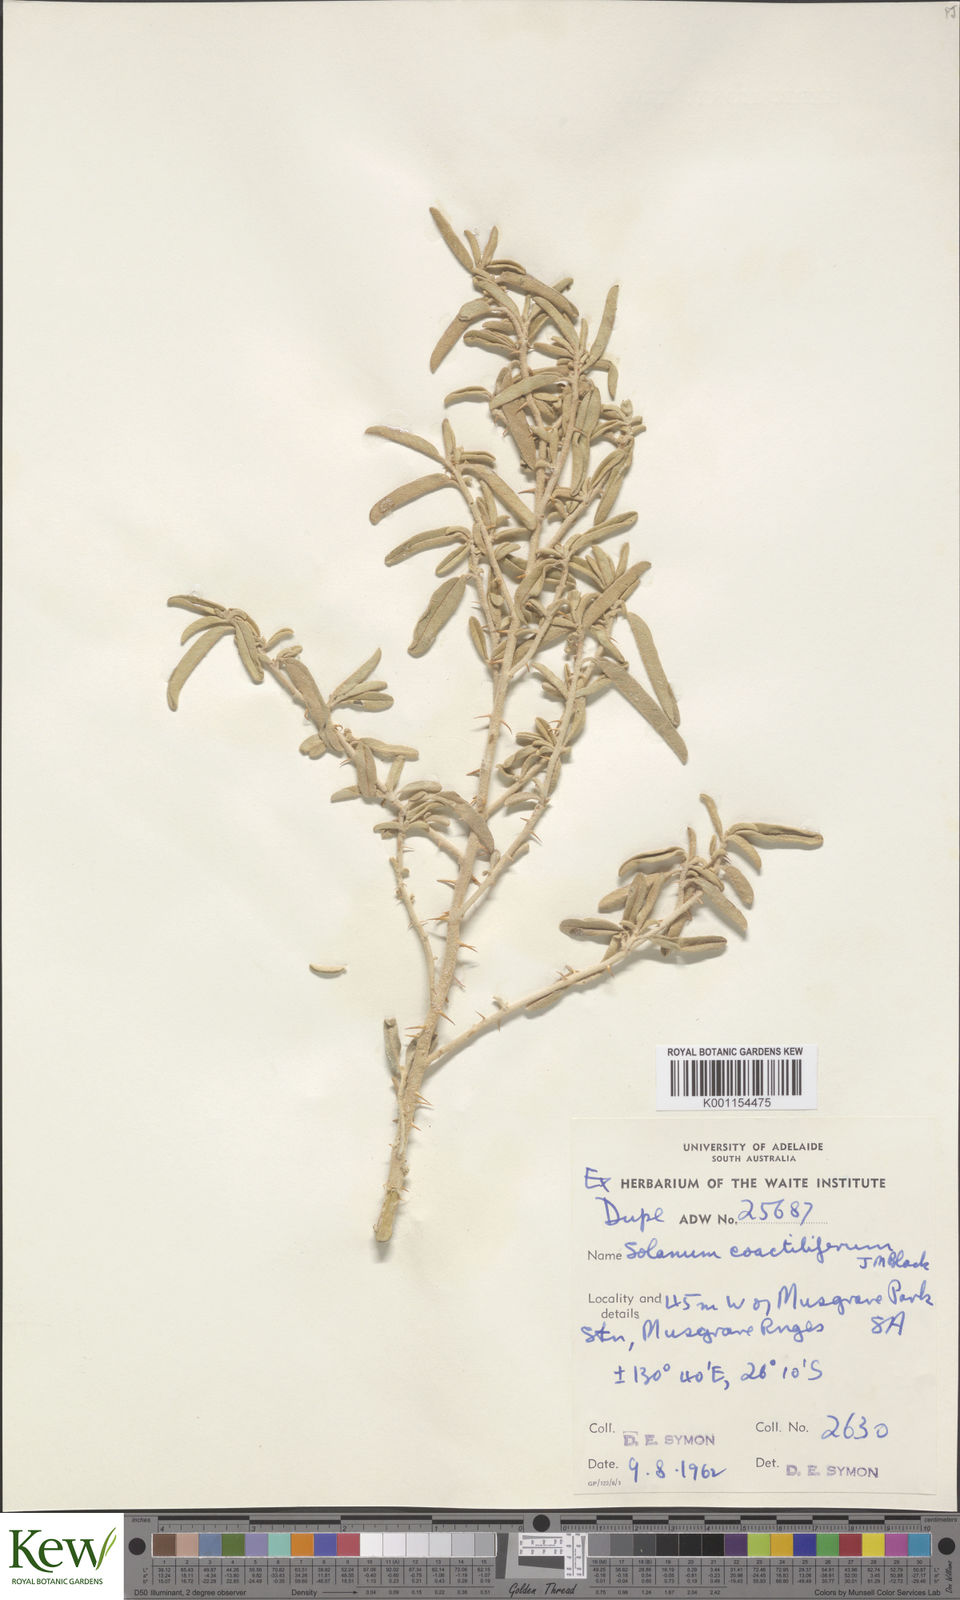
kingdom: Plantae
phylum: Tracheophyta
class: Magnoliopsida
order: Solanales
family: Solanaceae
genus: Solanum
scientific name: Solanum coactiliferum
